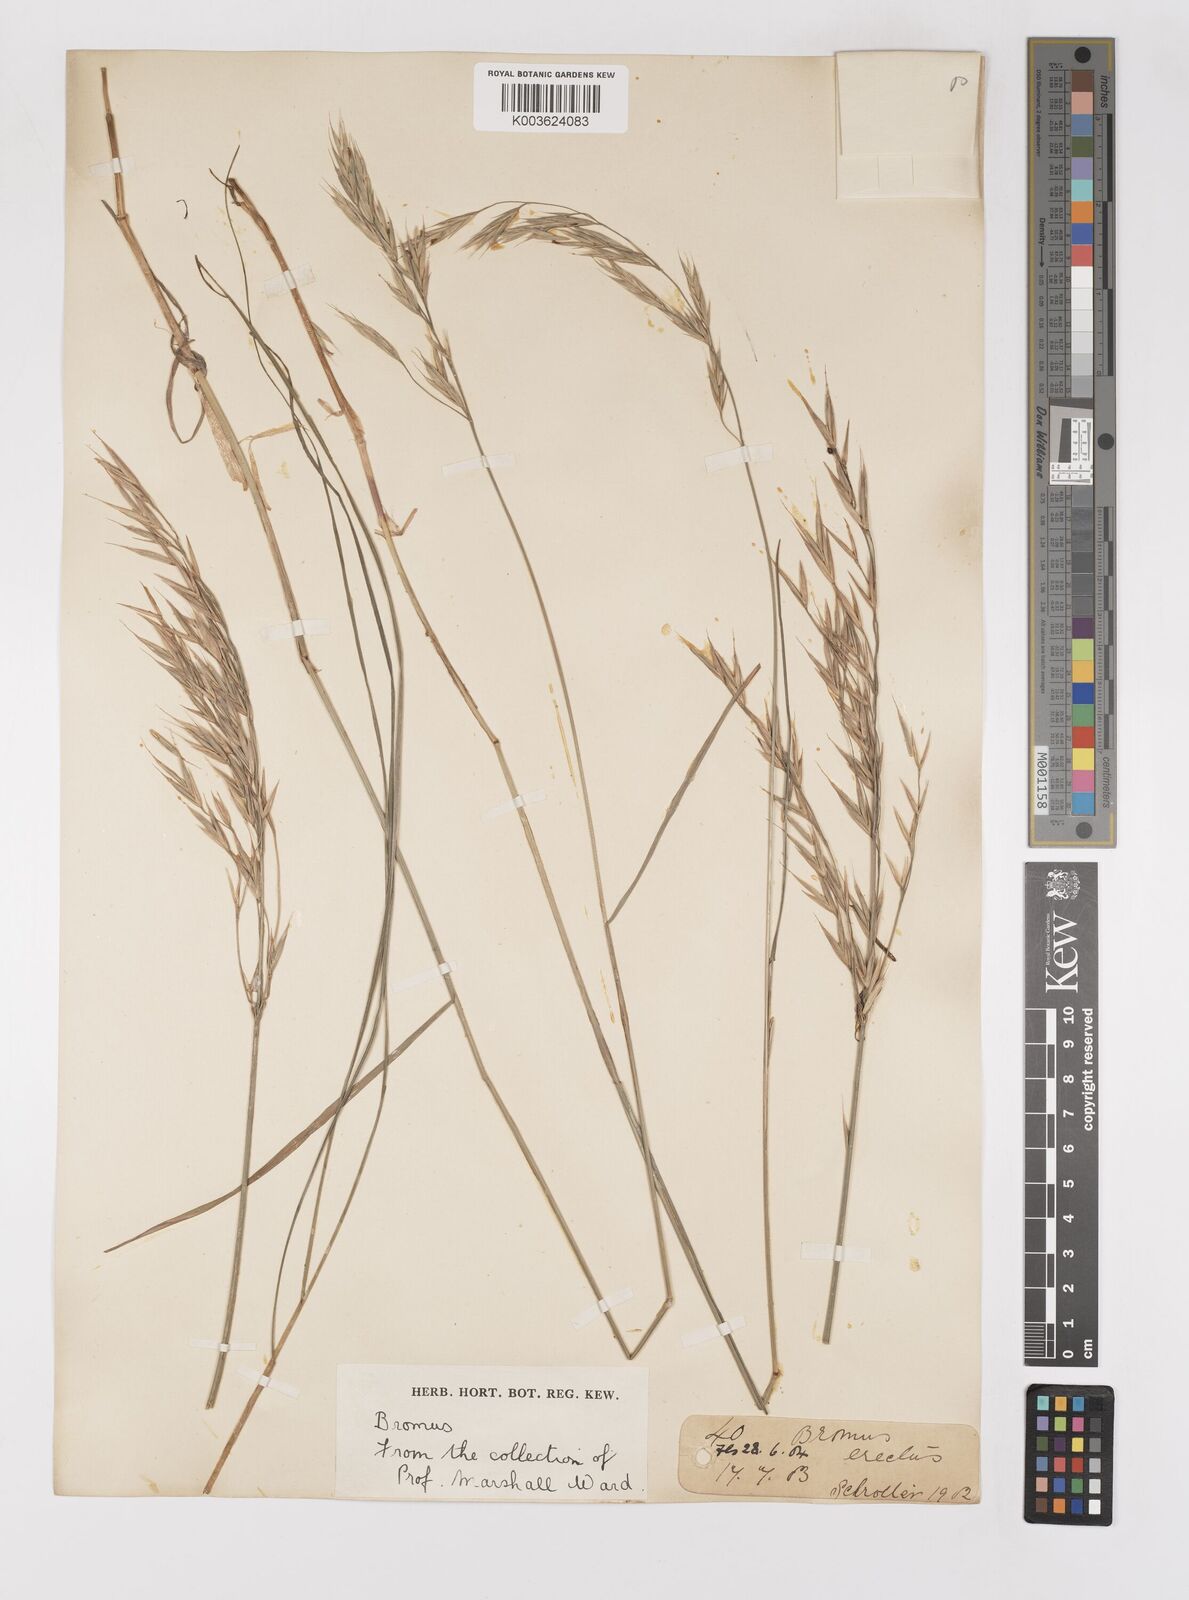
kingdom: Plantae
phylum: Tracheophyta
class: Liliopsida
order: Poales
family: Poaceae
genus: Bromus
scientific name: Bromus erectus
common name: Erect brome
